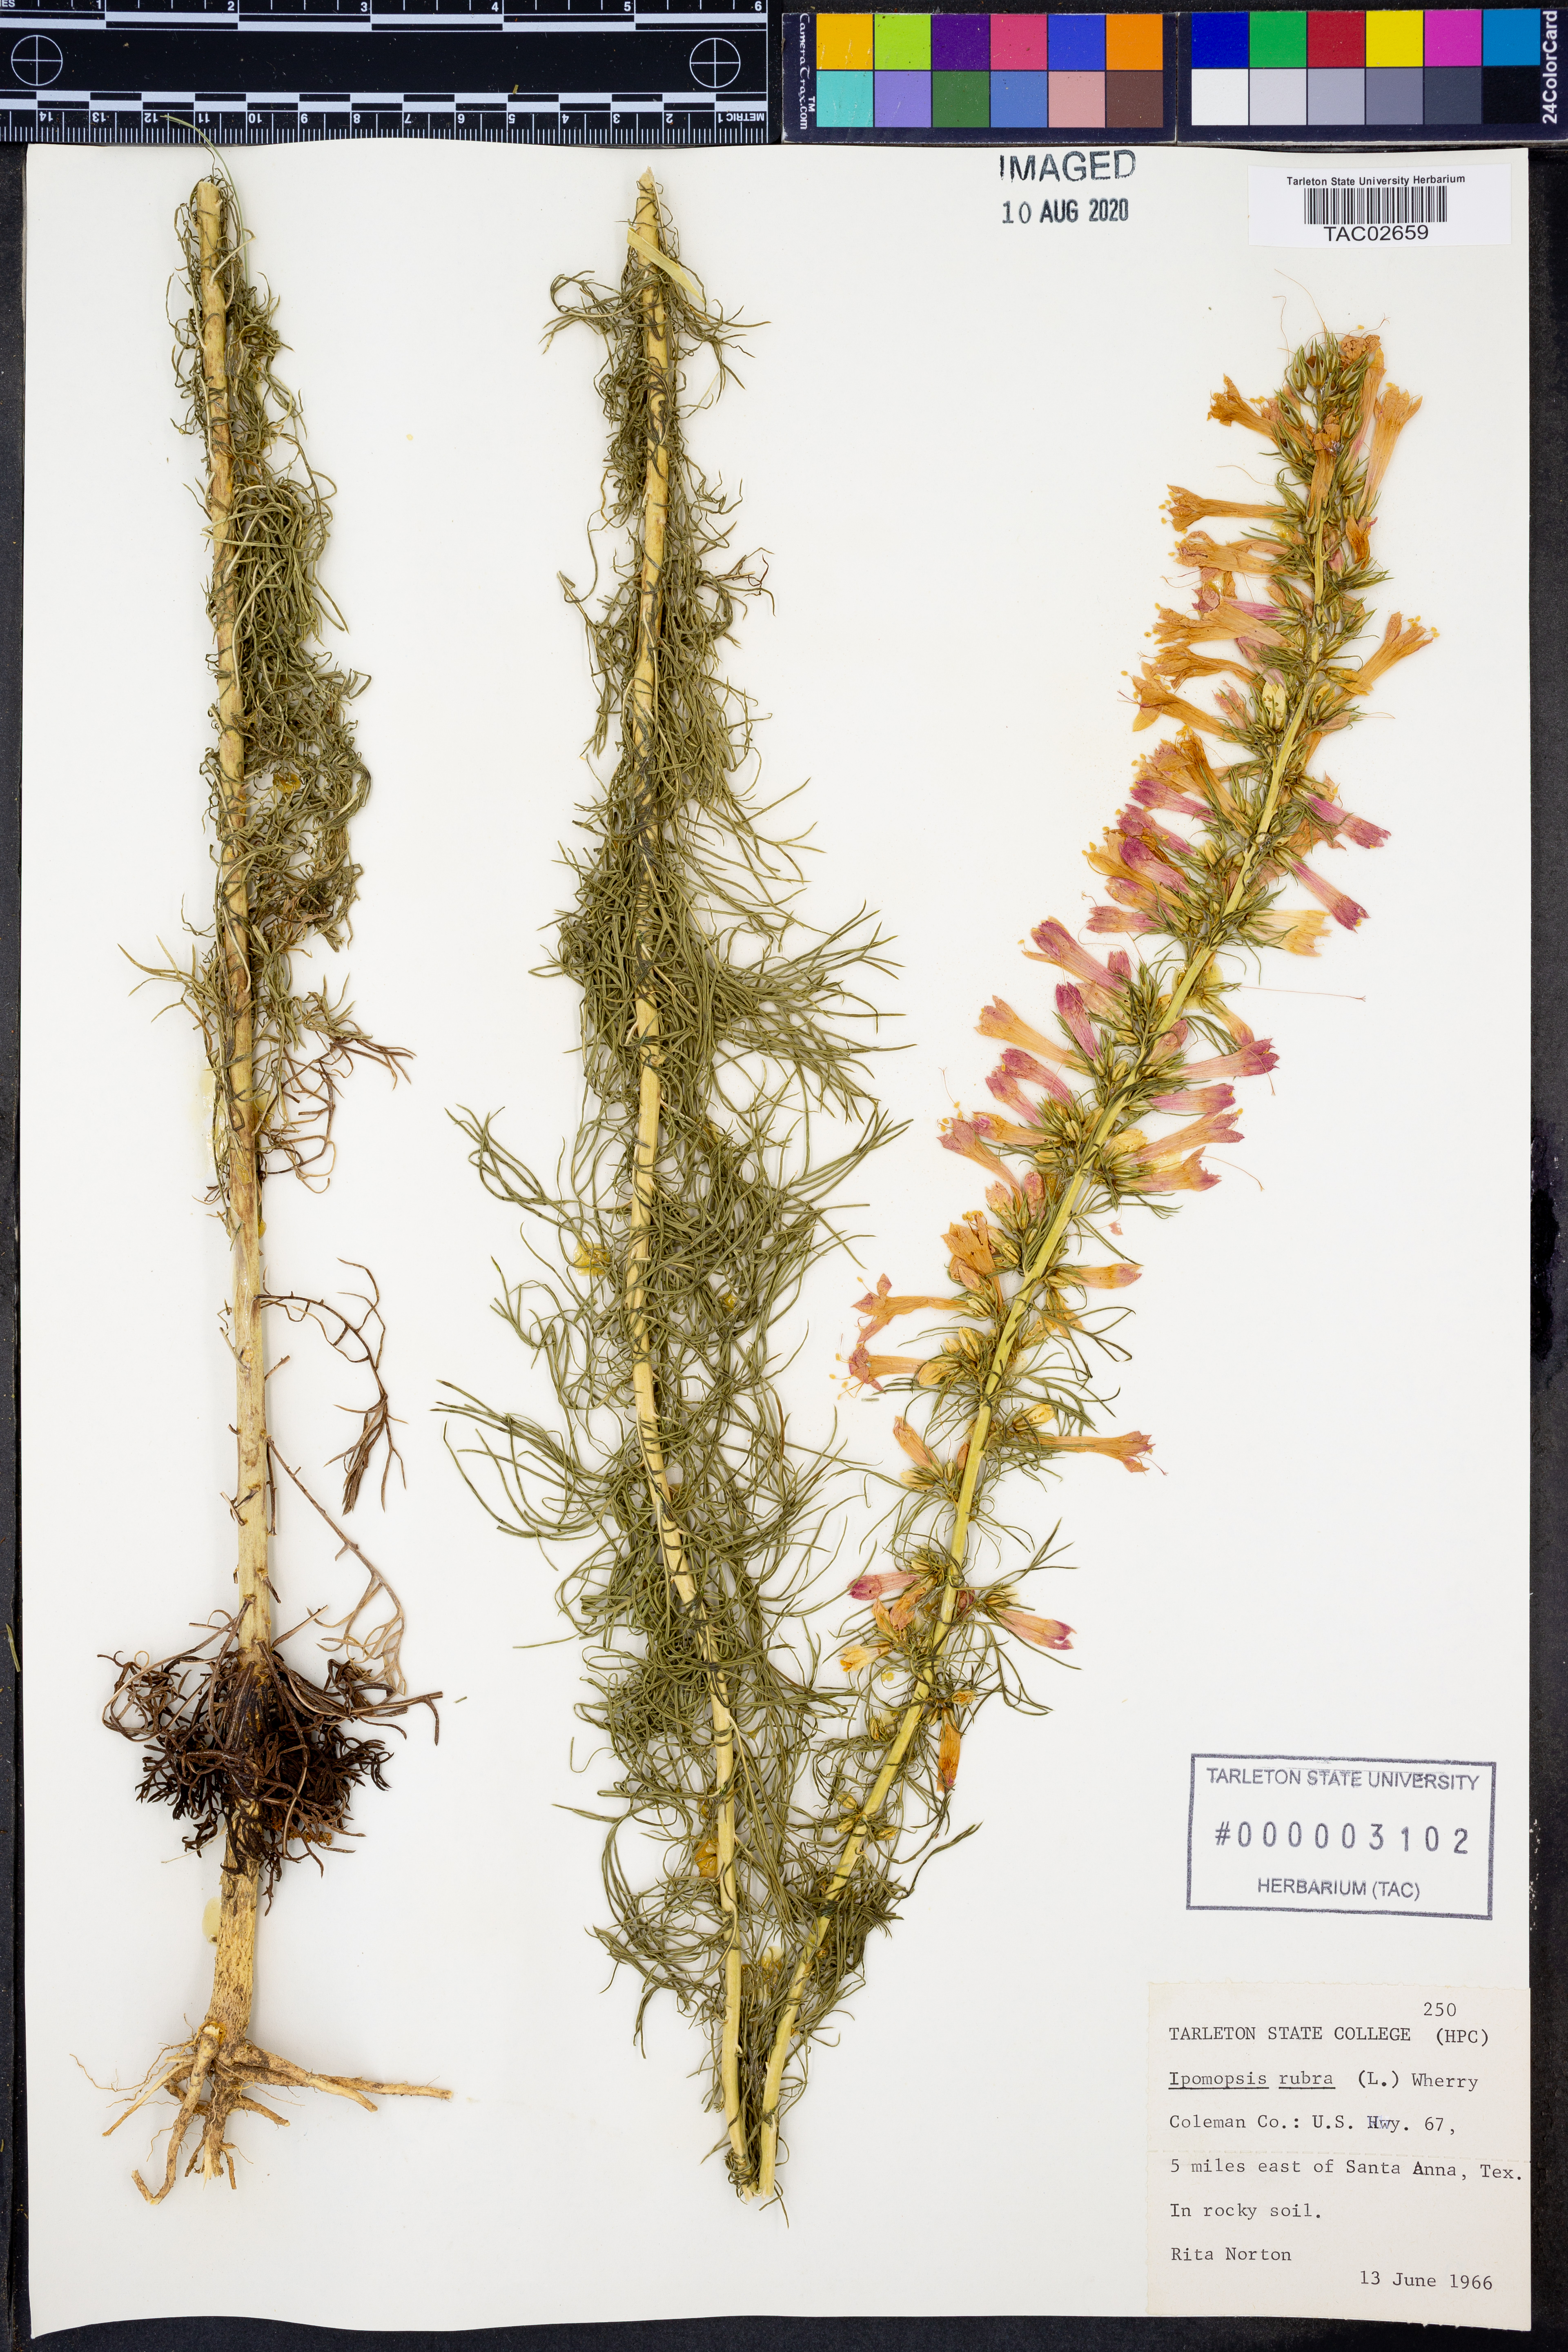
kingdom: Plantae
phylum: Tracheophyta
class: Magnoliopsida
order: Ericales
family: Polemoniaceae
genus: Ipomopsis
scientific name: Ipomopsis rubra
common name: Skyrocket
